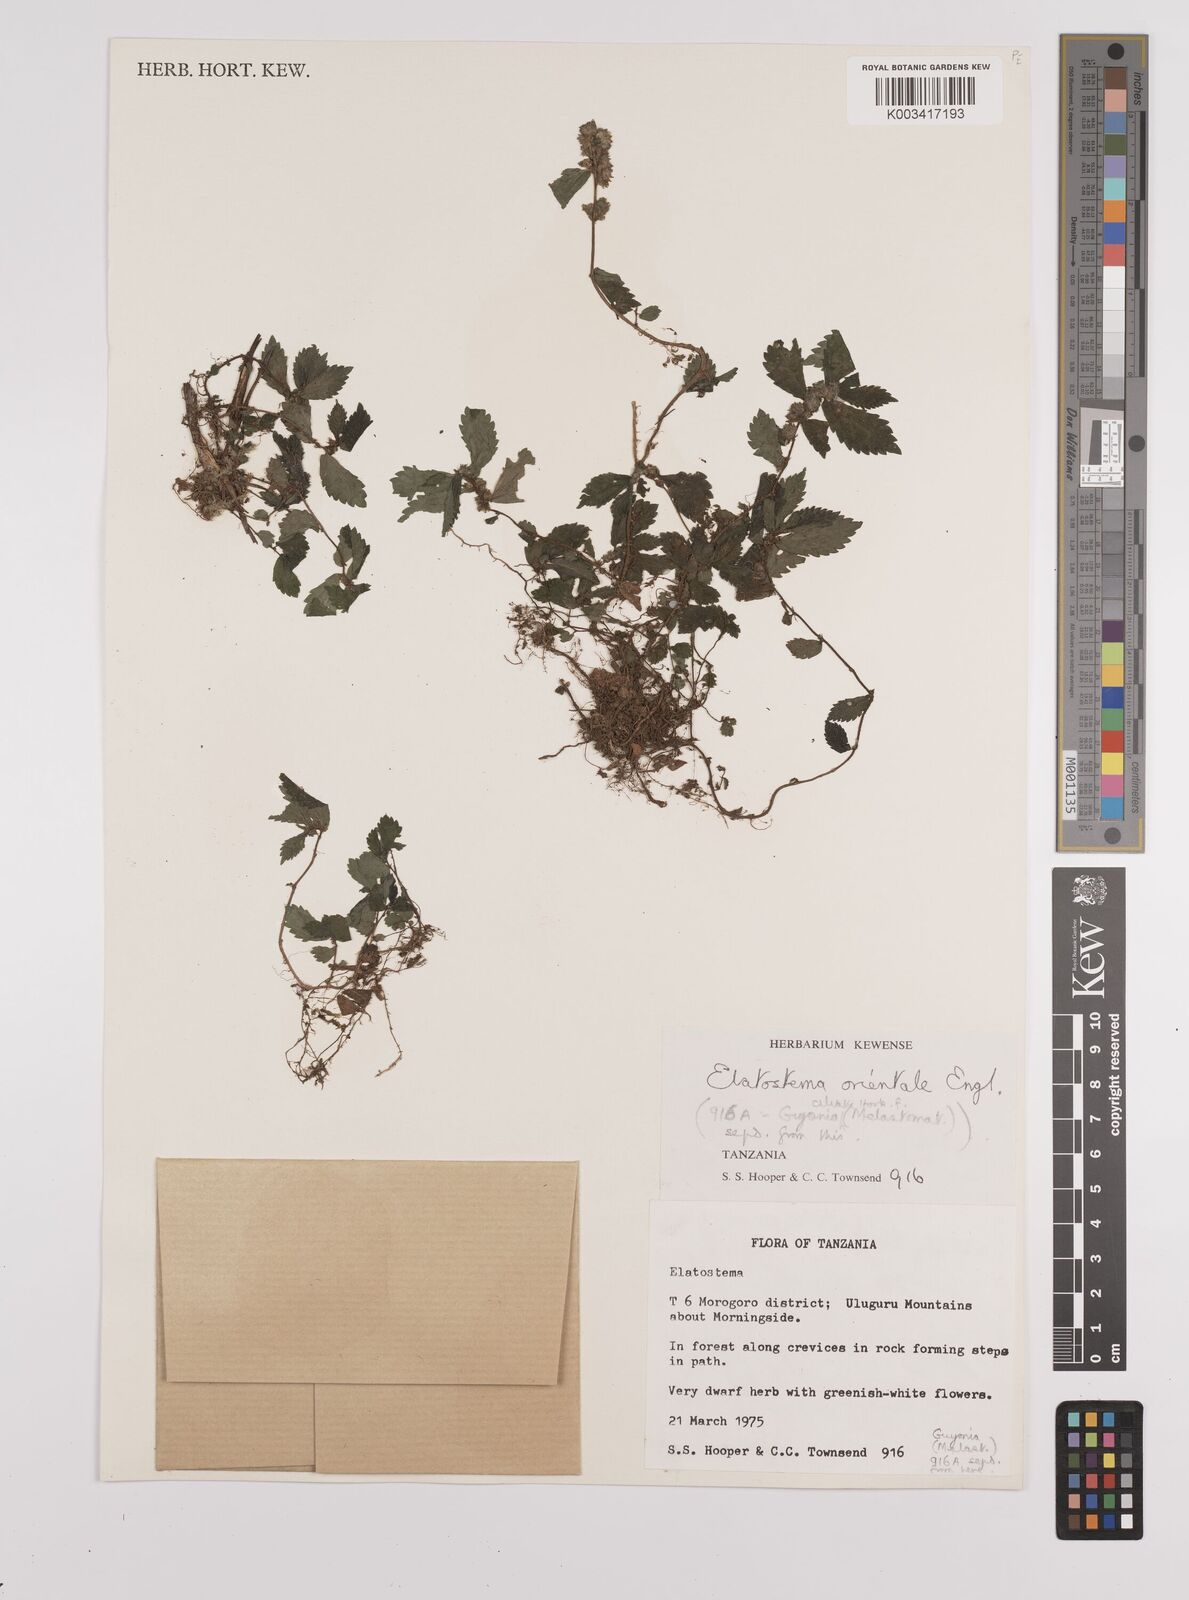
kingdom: Plantae
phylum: Tracheophyta
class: Magnoliopsida
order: Rosales
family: Urticaceae
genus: Elatostema
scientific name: Elatostema monticola
